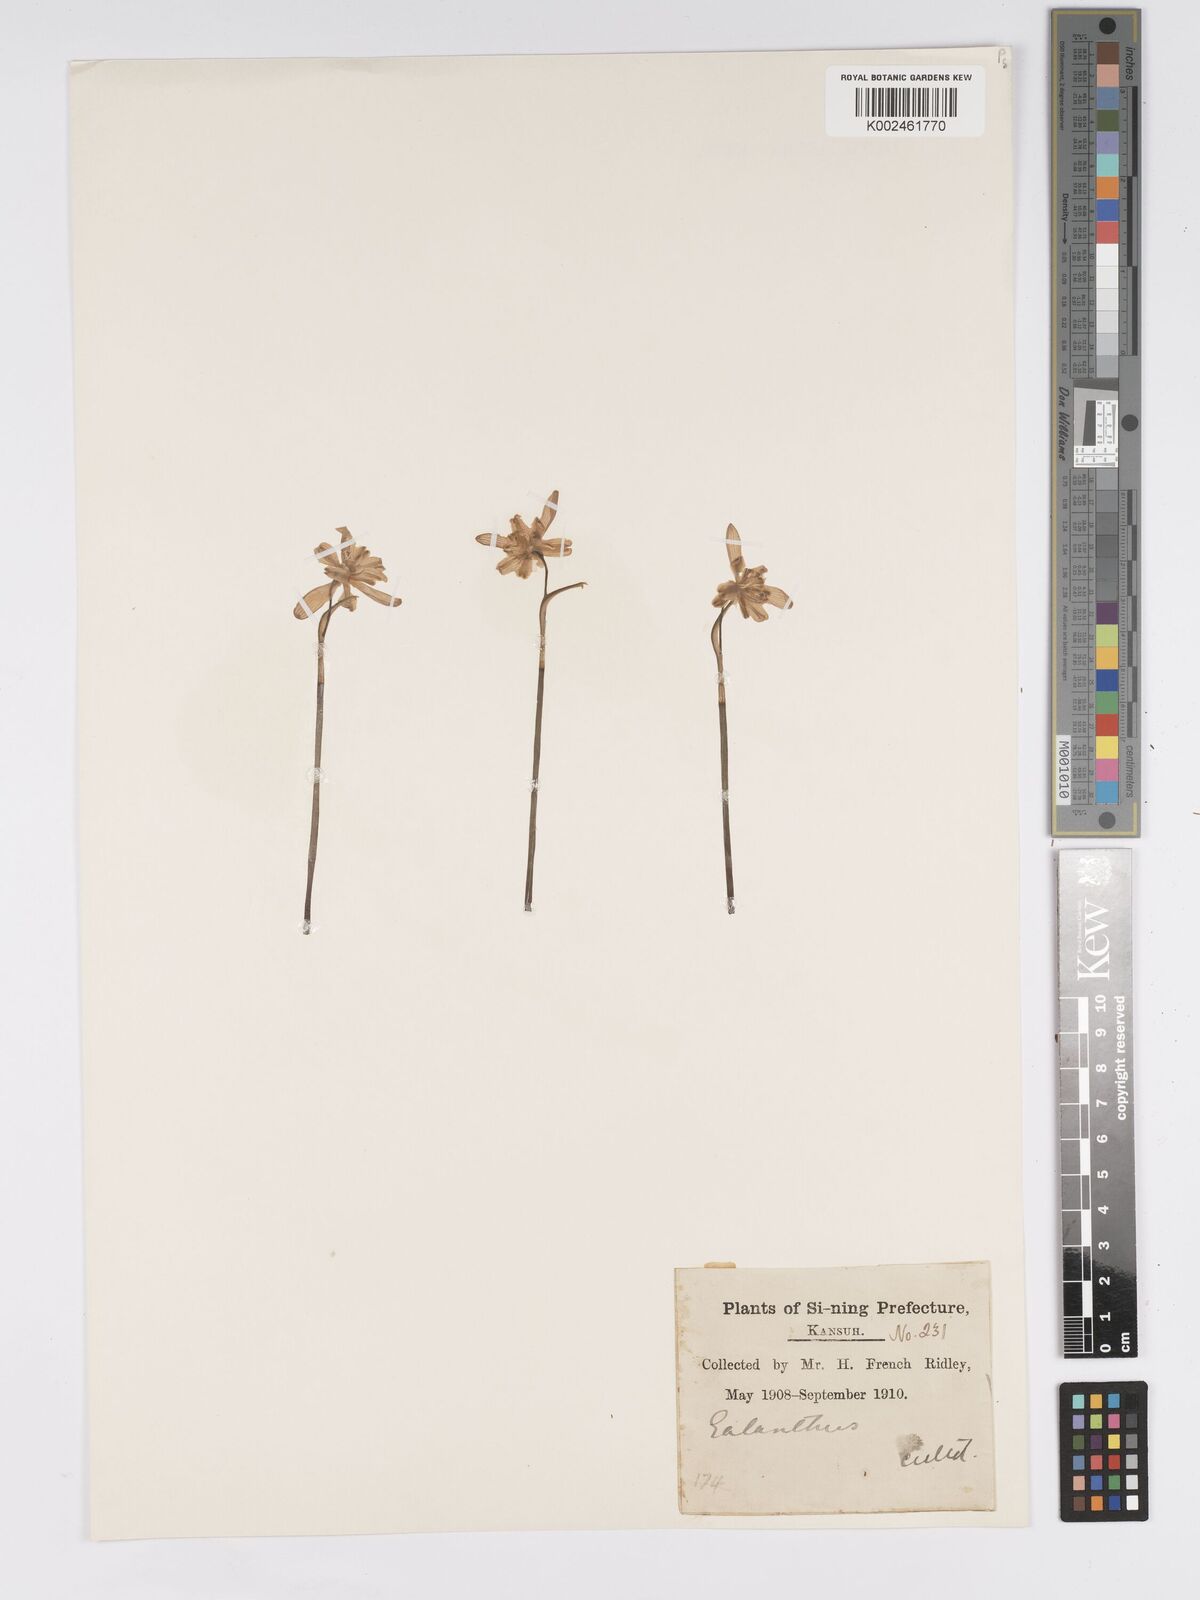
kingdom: Plantae
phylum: Tracheophyta
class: Liliopsida
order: Asparagales
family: Amaryllidaceae
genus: Galanthus
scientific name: Galanthus
